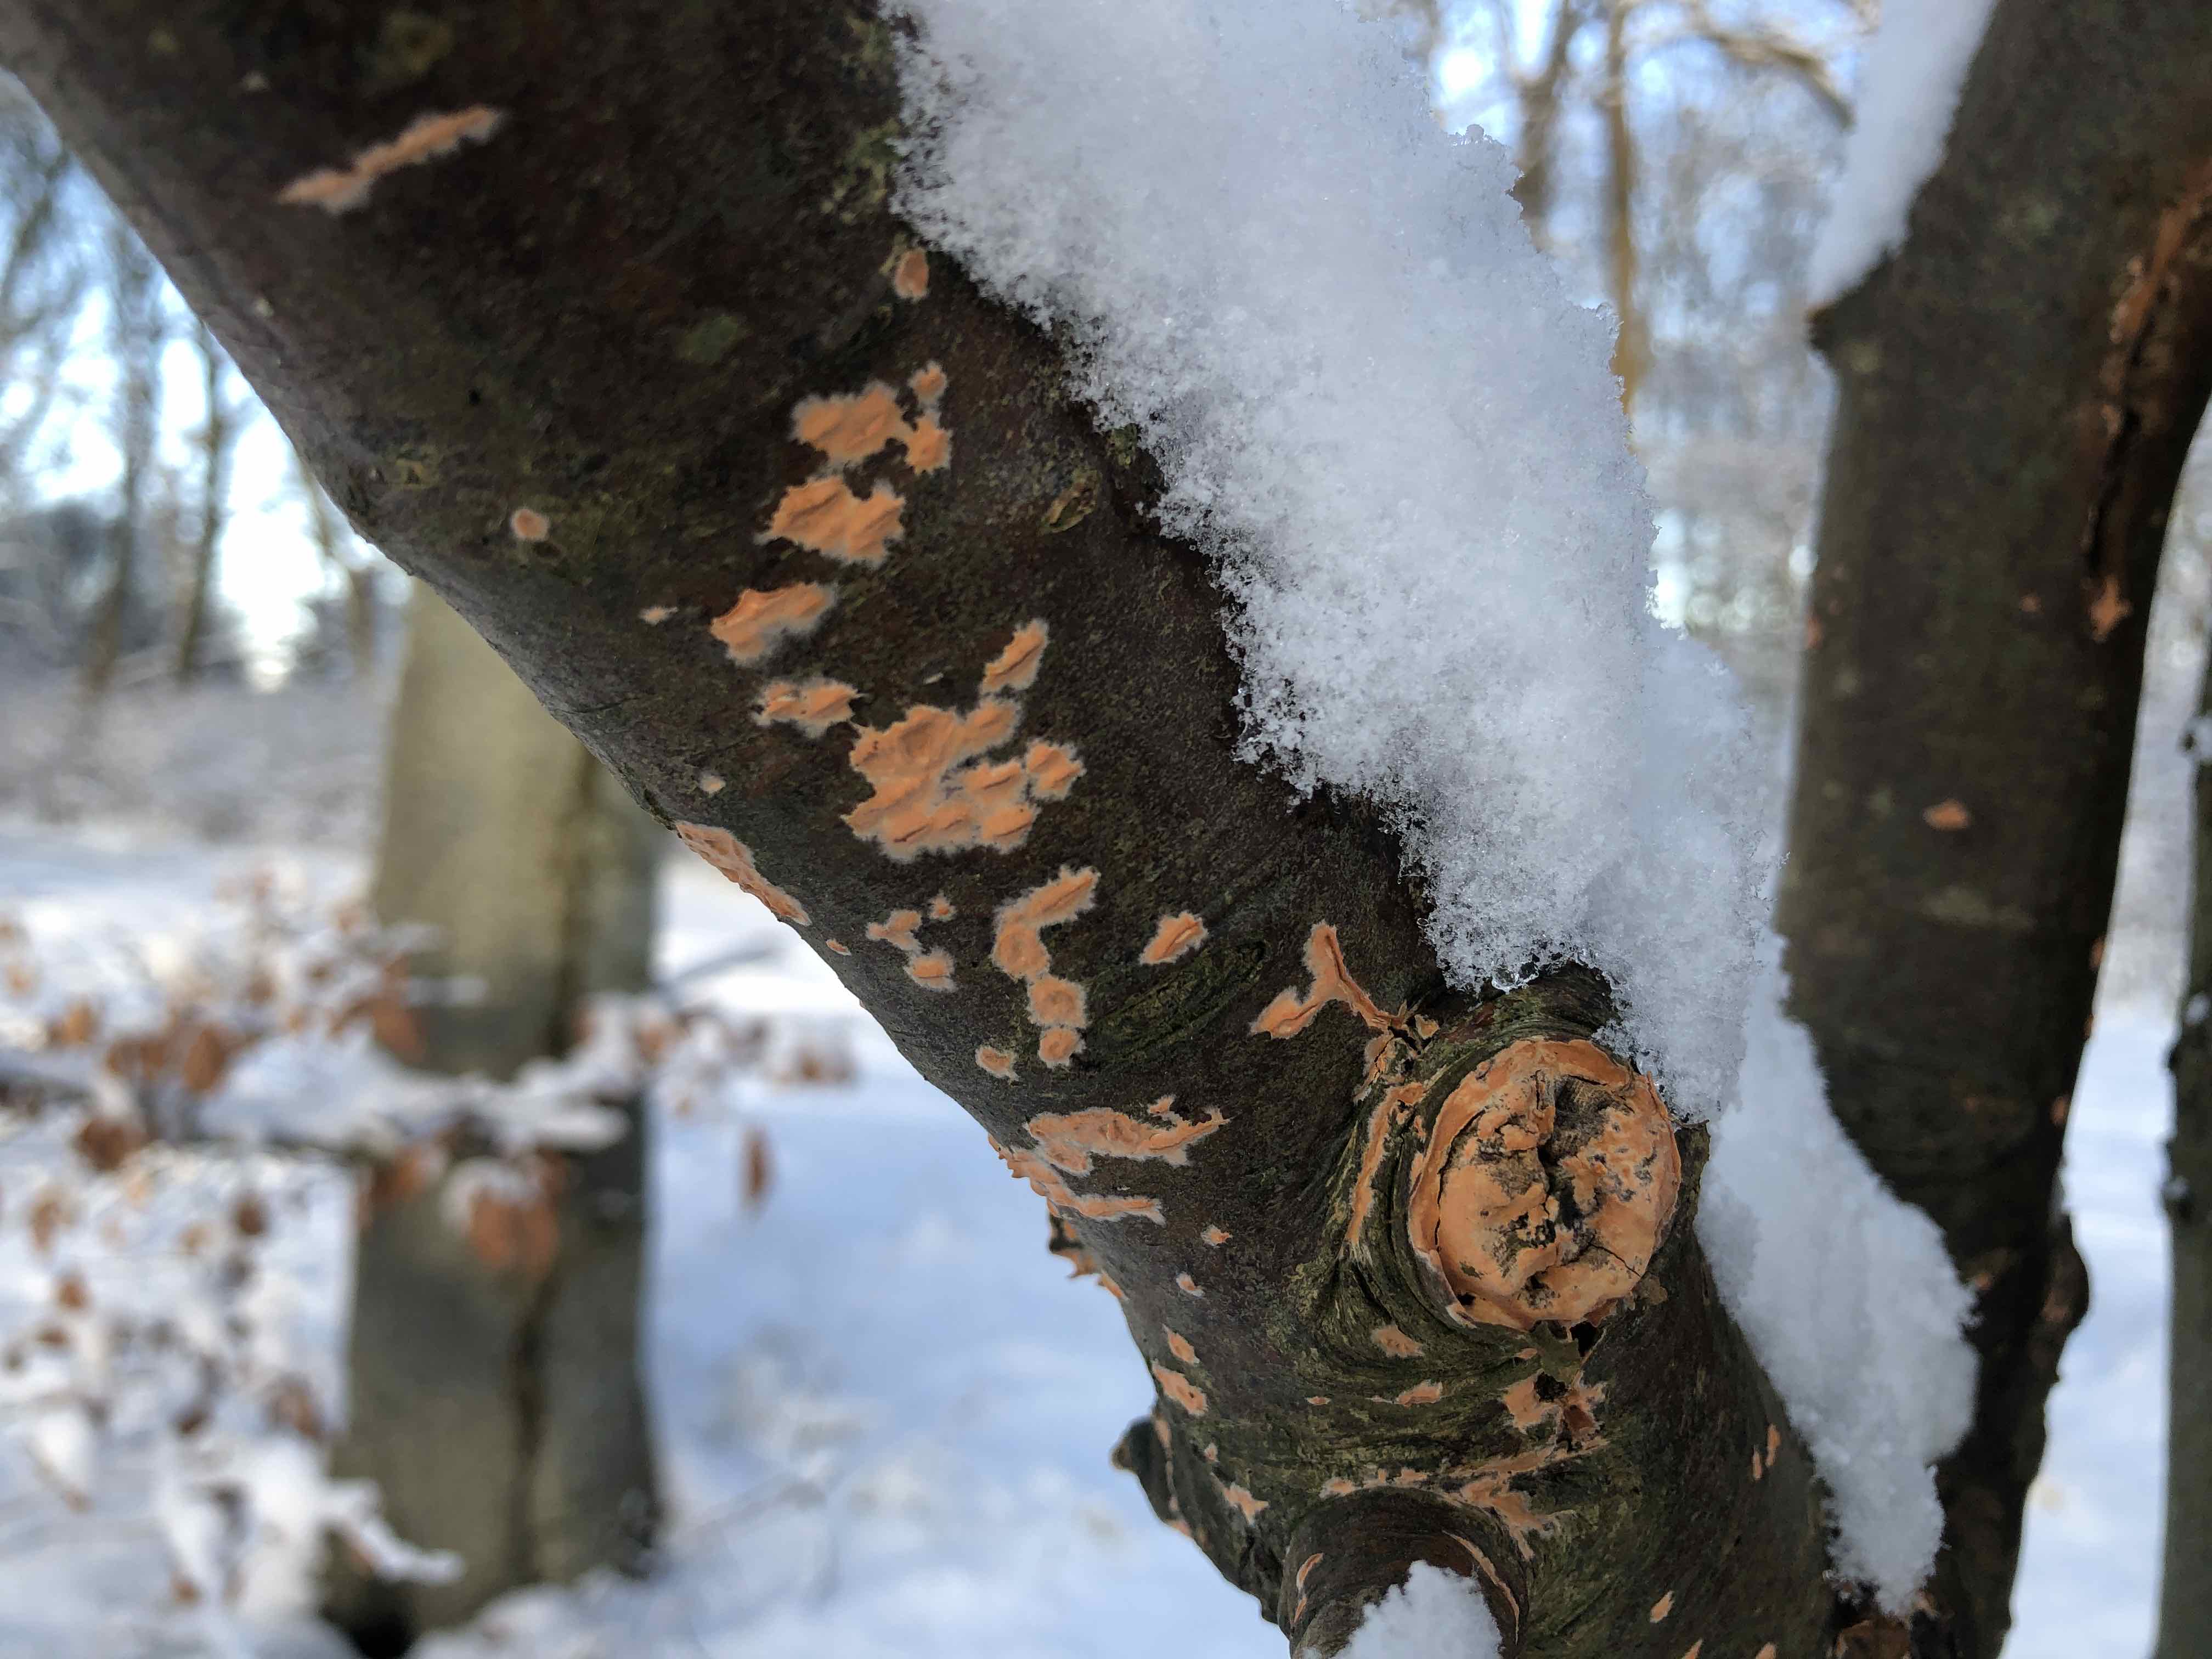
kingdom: Fungi
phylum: Basidiomycota
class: Agaricomycetes
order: Russulales
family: Peniophoraceae
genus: Peniophora
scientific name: Peniophora incarnata
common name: laksefarvet voksskind
